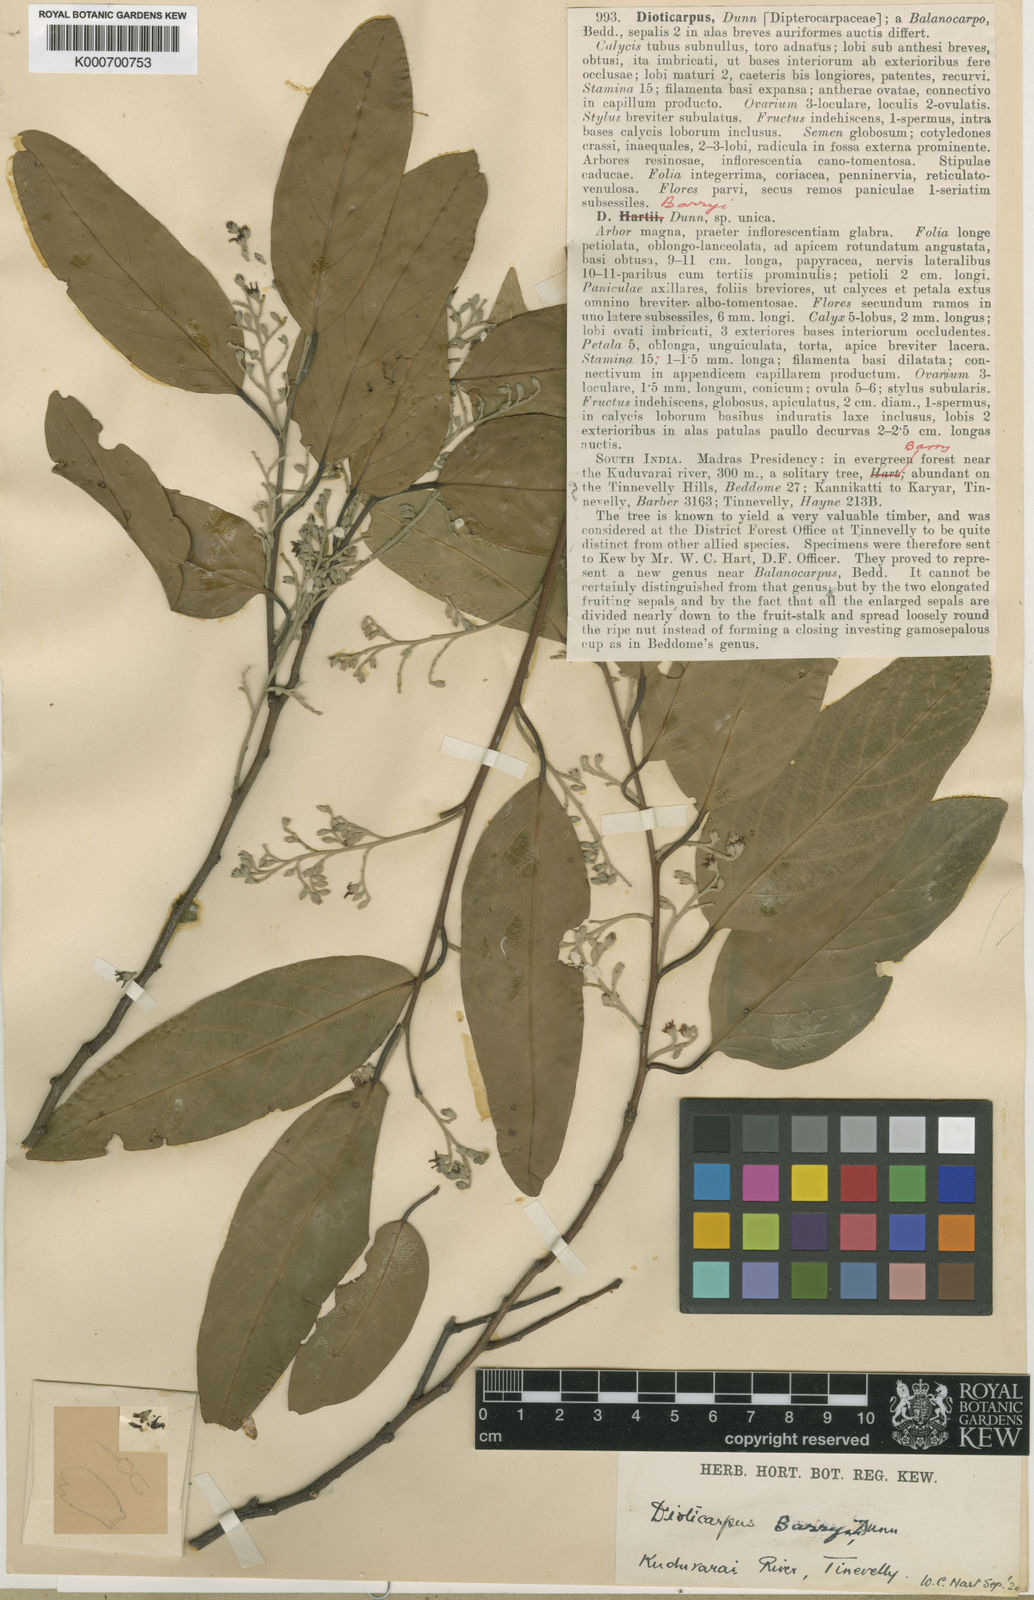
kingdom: Plantae
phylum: Tracheophyta
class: Magnoliopsida
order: Malvales
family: Dipterocarpaceae
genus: Hopea
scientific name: Hopea
